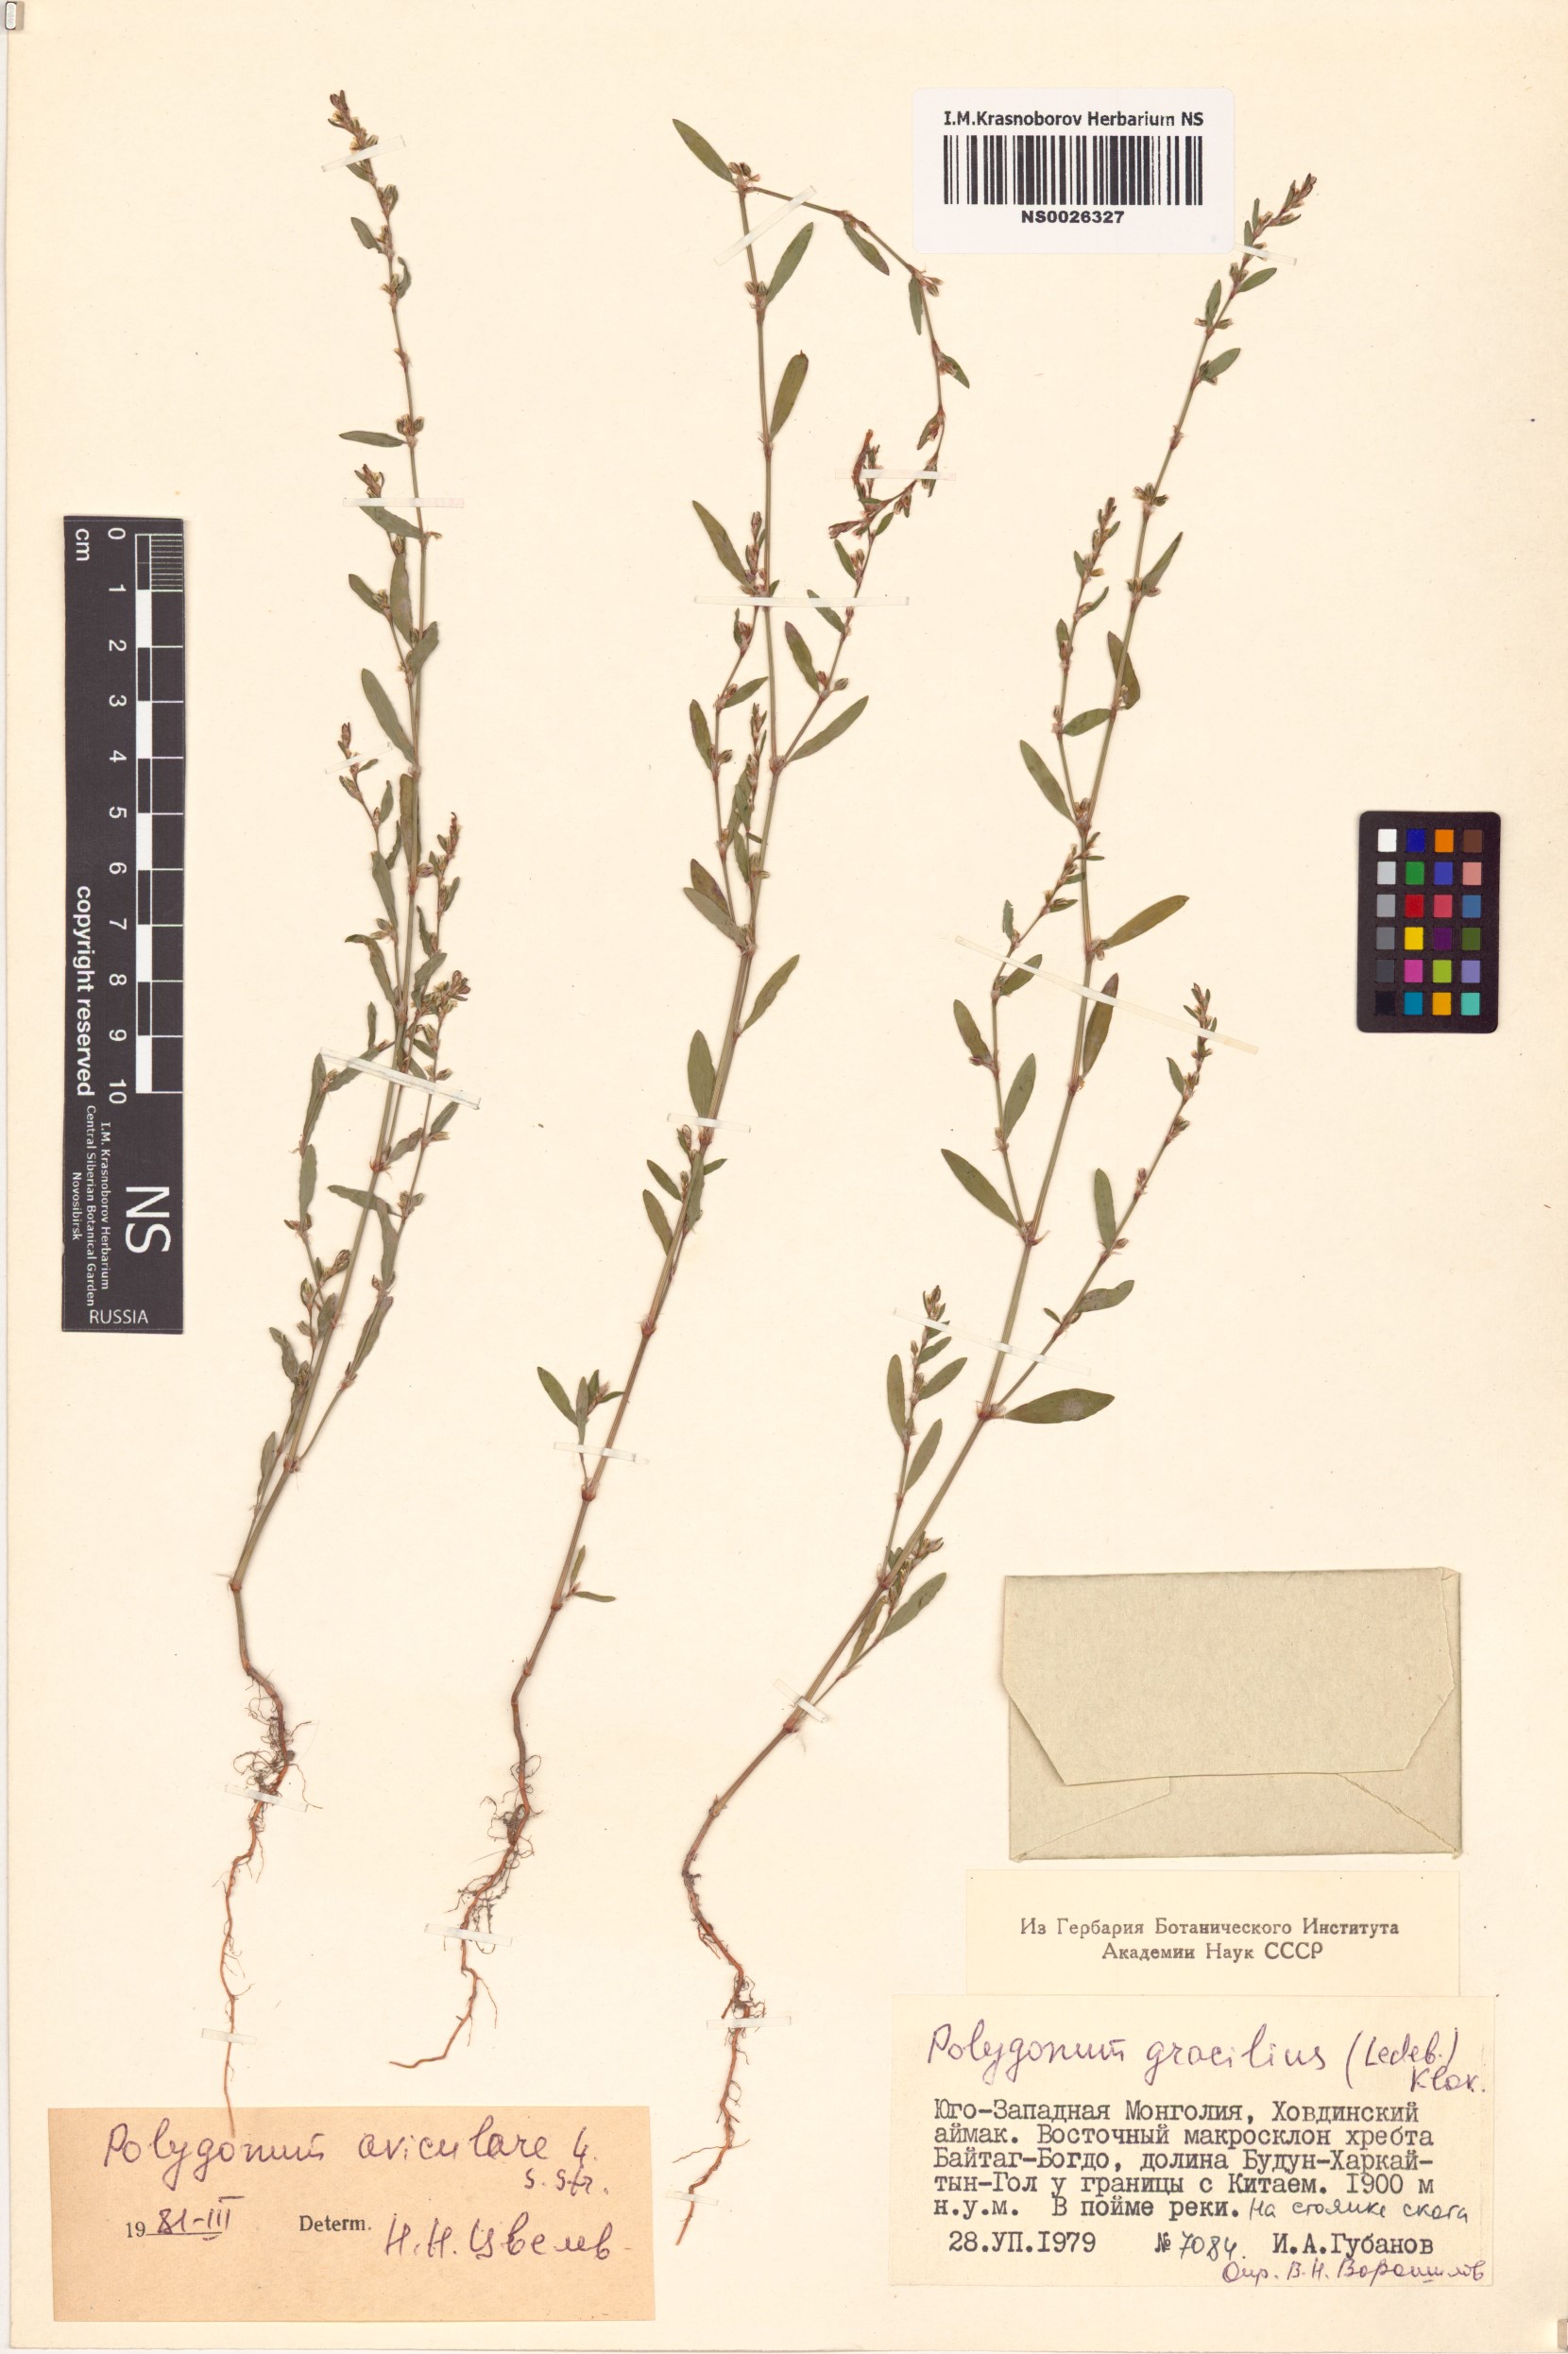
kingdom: Plantae
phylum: Tracheophyta
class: Magnoliopsida
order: Caryophyllales
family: Polygonaceae
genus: Polygonum
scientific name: Polygonum patulum
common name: Red-knotgrass
